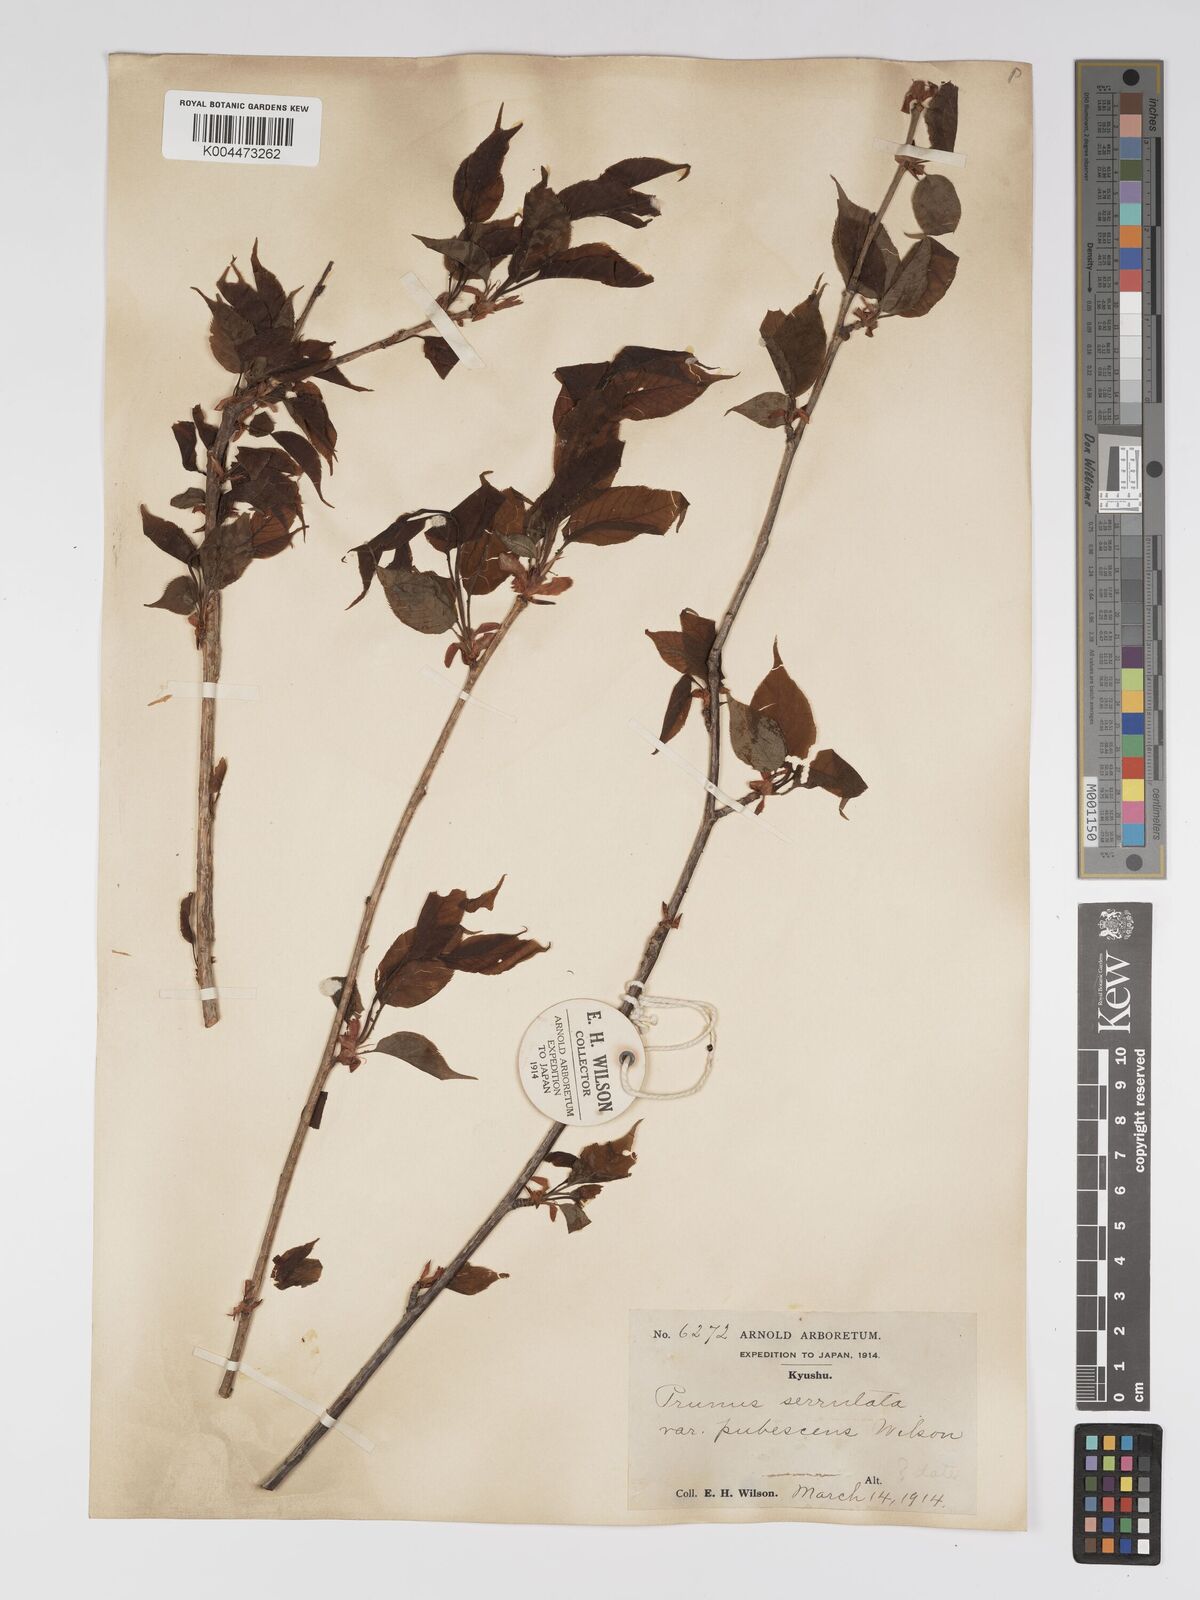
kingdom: Plantae
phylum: Tracheophyta
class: Magnoliopsida
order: Rosales
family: Rosaceae
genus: Prunus
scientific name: Prunus serrulata
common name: Japanese cherry
